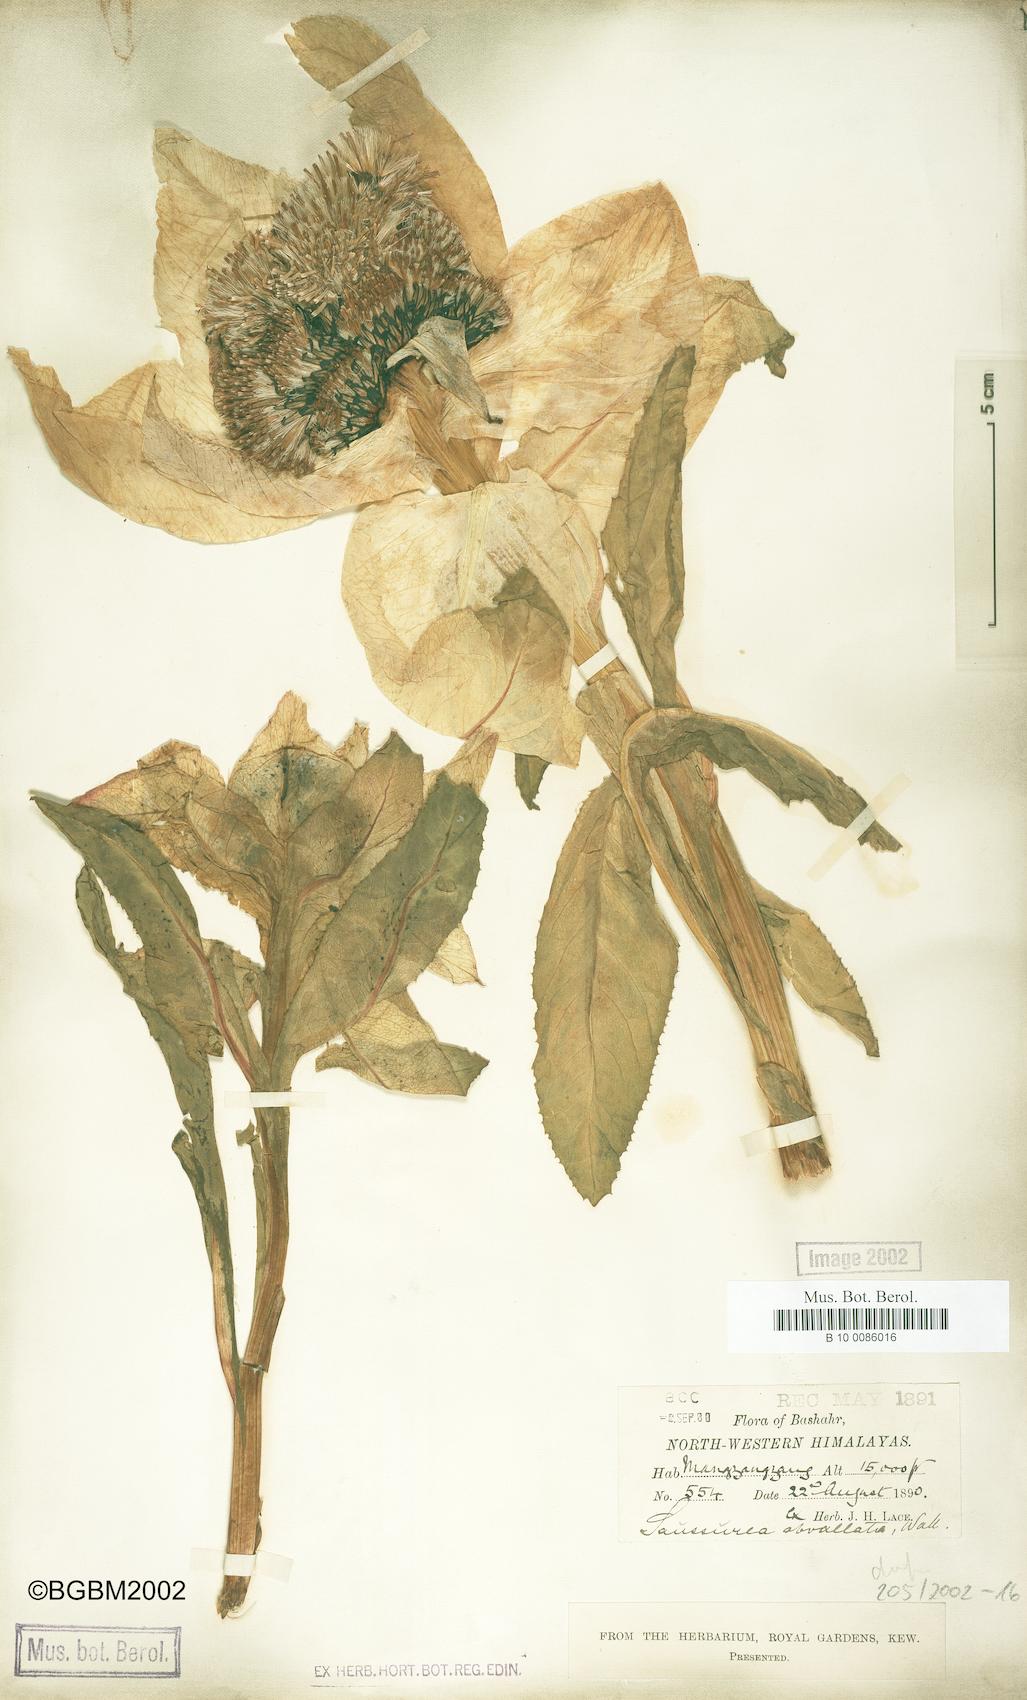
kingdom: Plantae
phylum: Tracheophyta
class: Magnoliopsida
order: Asterales
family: Asteraceae
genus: Saussurea
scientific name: Saussurea obvallata
